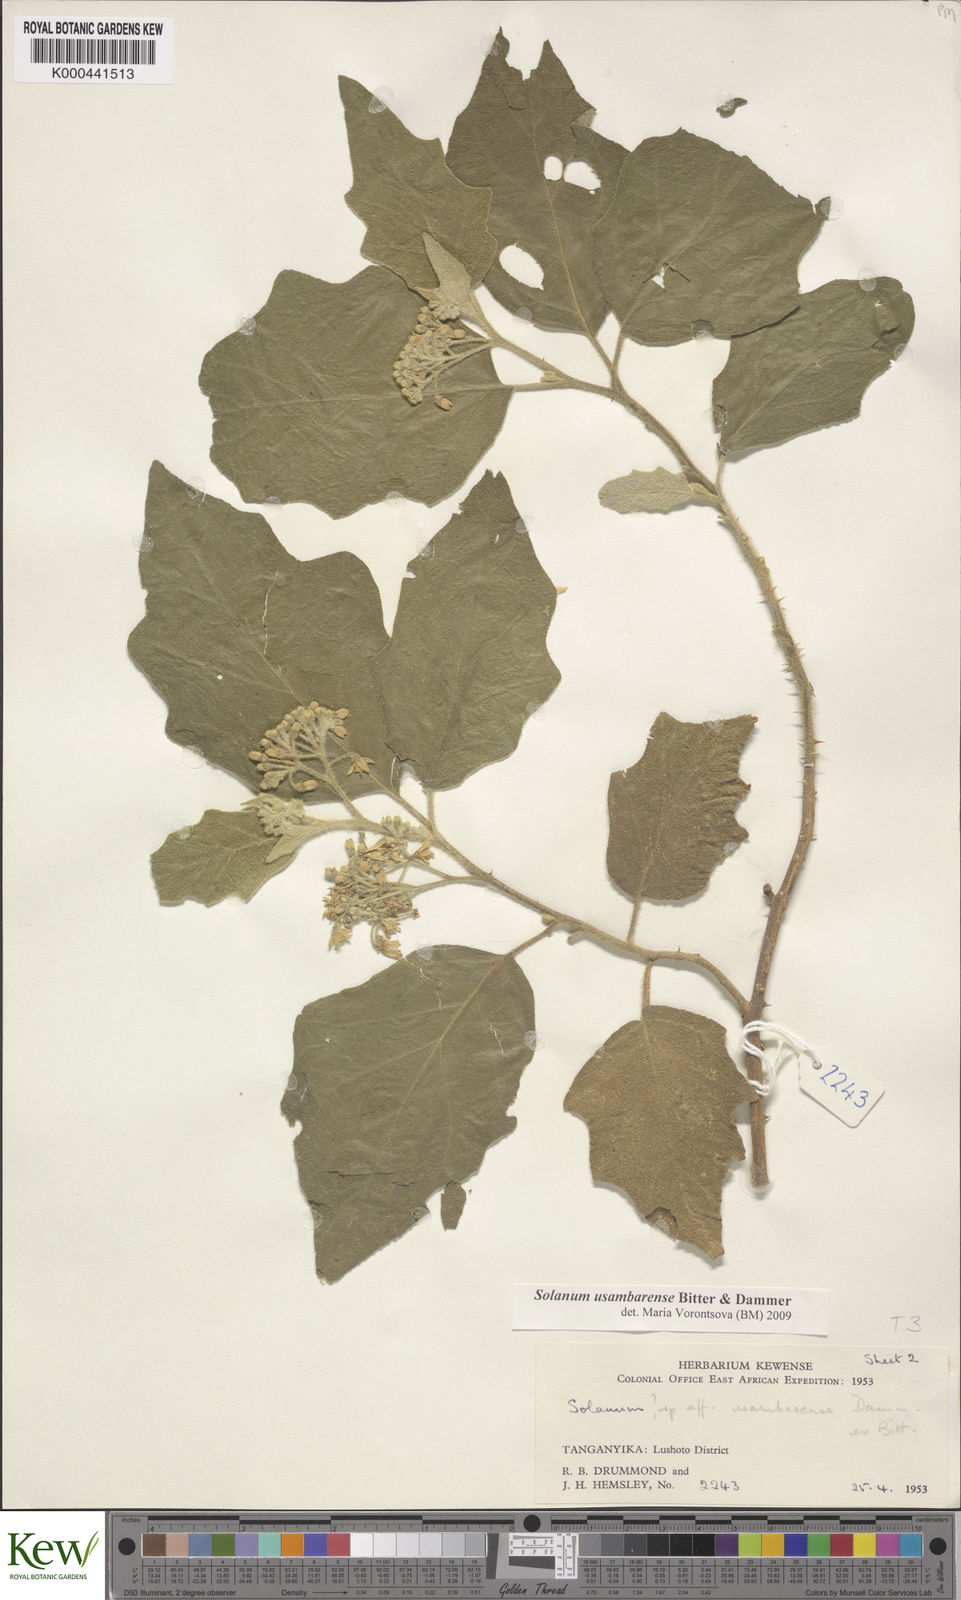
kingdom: Plantae
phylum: Tracheophyta
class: Magnoliopsida
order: Solanales
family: Solanaceae
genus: Solanum
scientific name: Solanum usambarense
